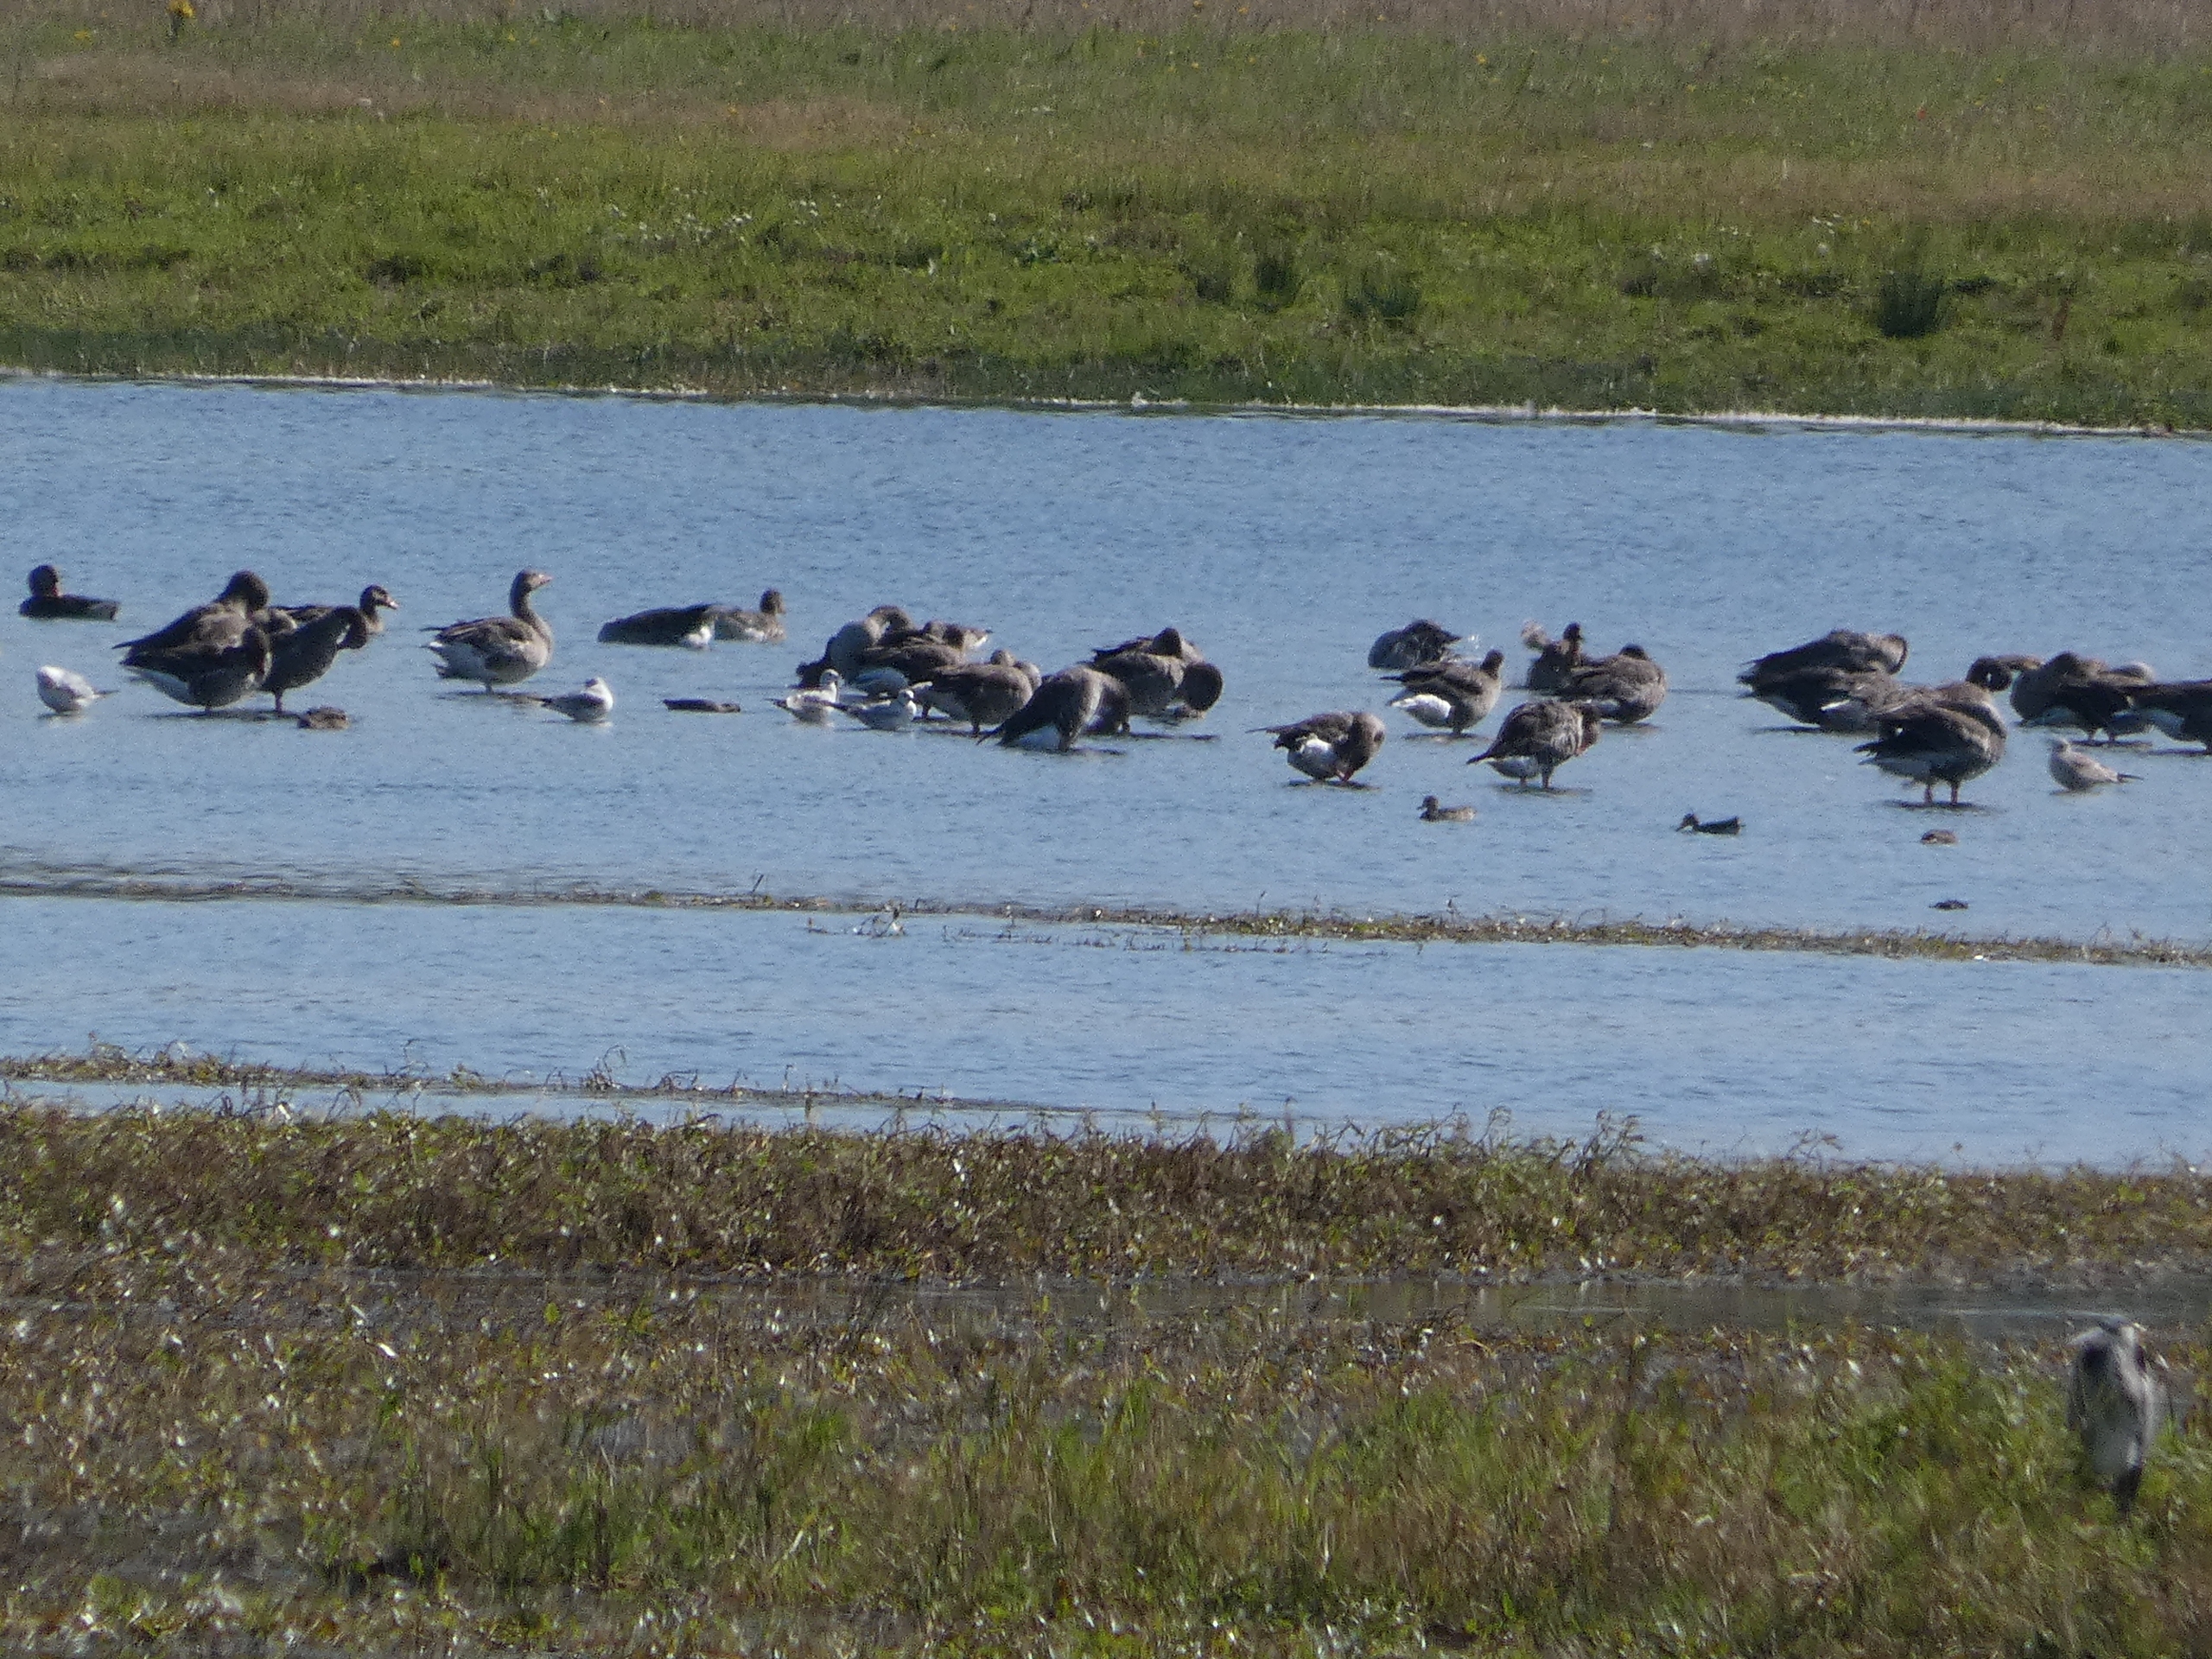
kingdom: Animalia
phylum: Chordata
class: Aves
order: Anseriformes
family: Anatidae
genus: Anser
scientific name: Anser anser
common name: Grågås
